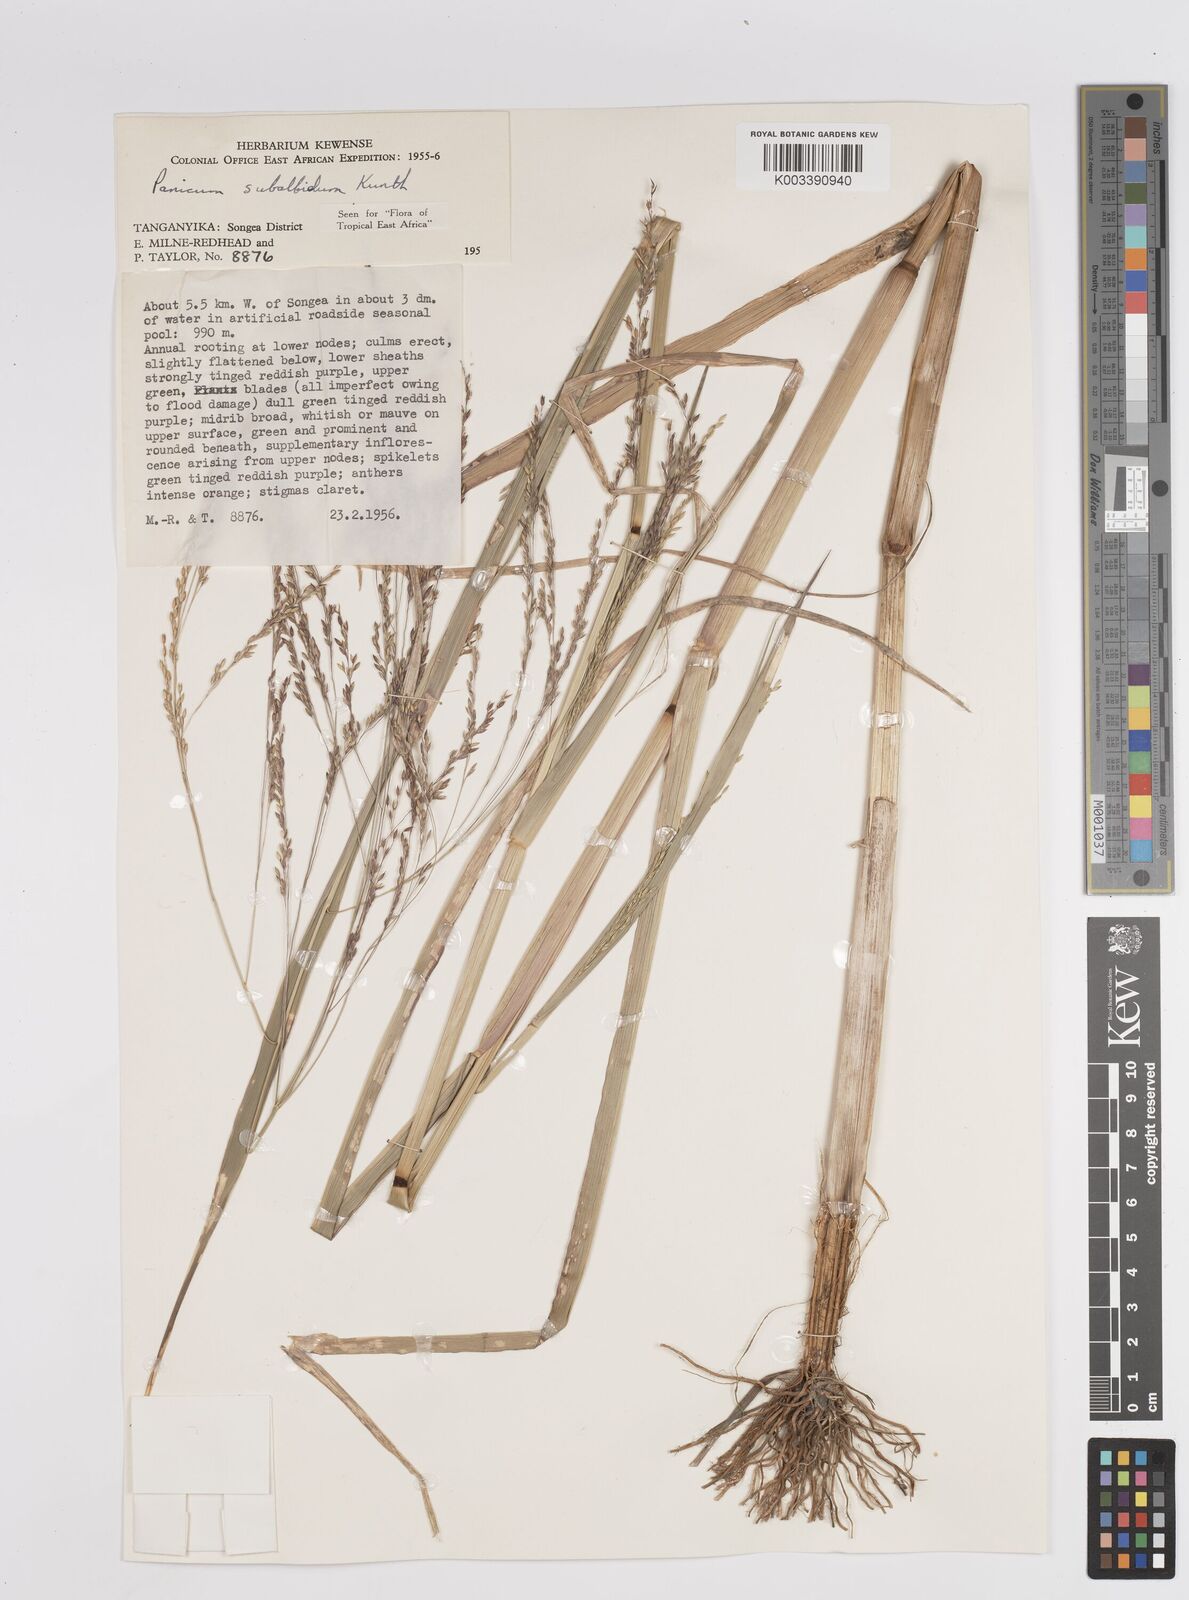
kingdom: Plantae
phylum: Tracheophyta
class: Liliopsida
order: Poales
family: Poaceae
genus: Panicum
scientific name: Panicum subalbidum
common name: Elbow buffalo grass
